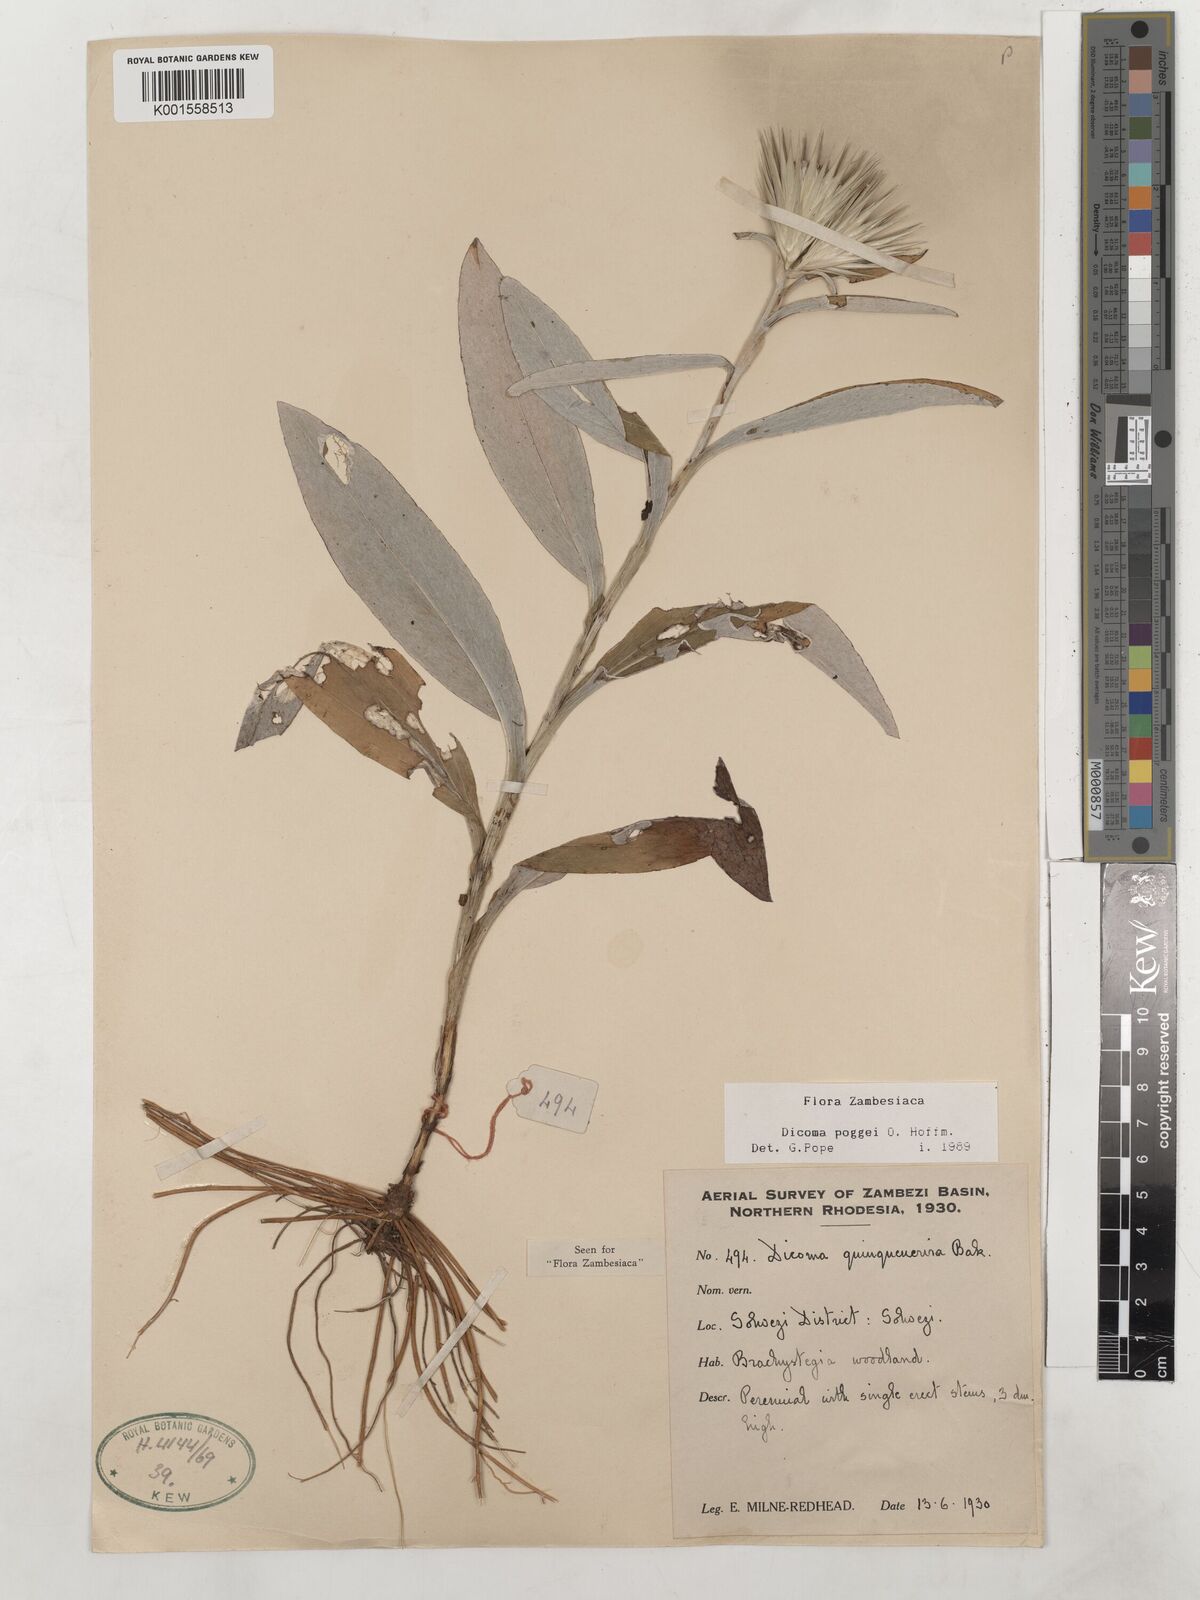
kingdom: Plantae
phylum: Tracheophyta
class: Magnoliopsida
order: Asterales
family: Asteraceae
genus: Macledium
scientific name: Macledium poggei
